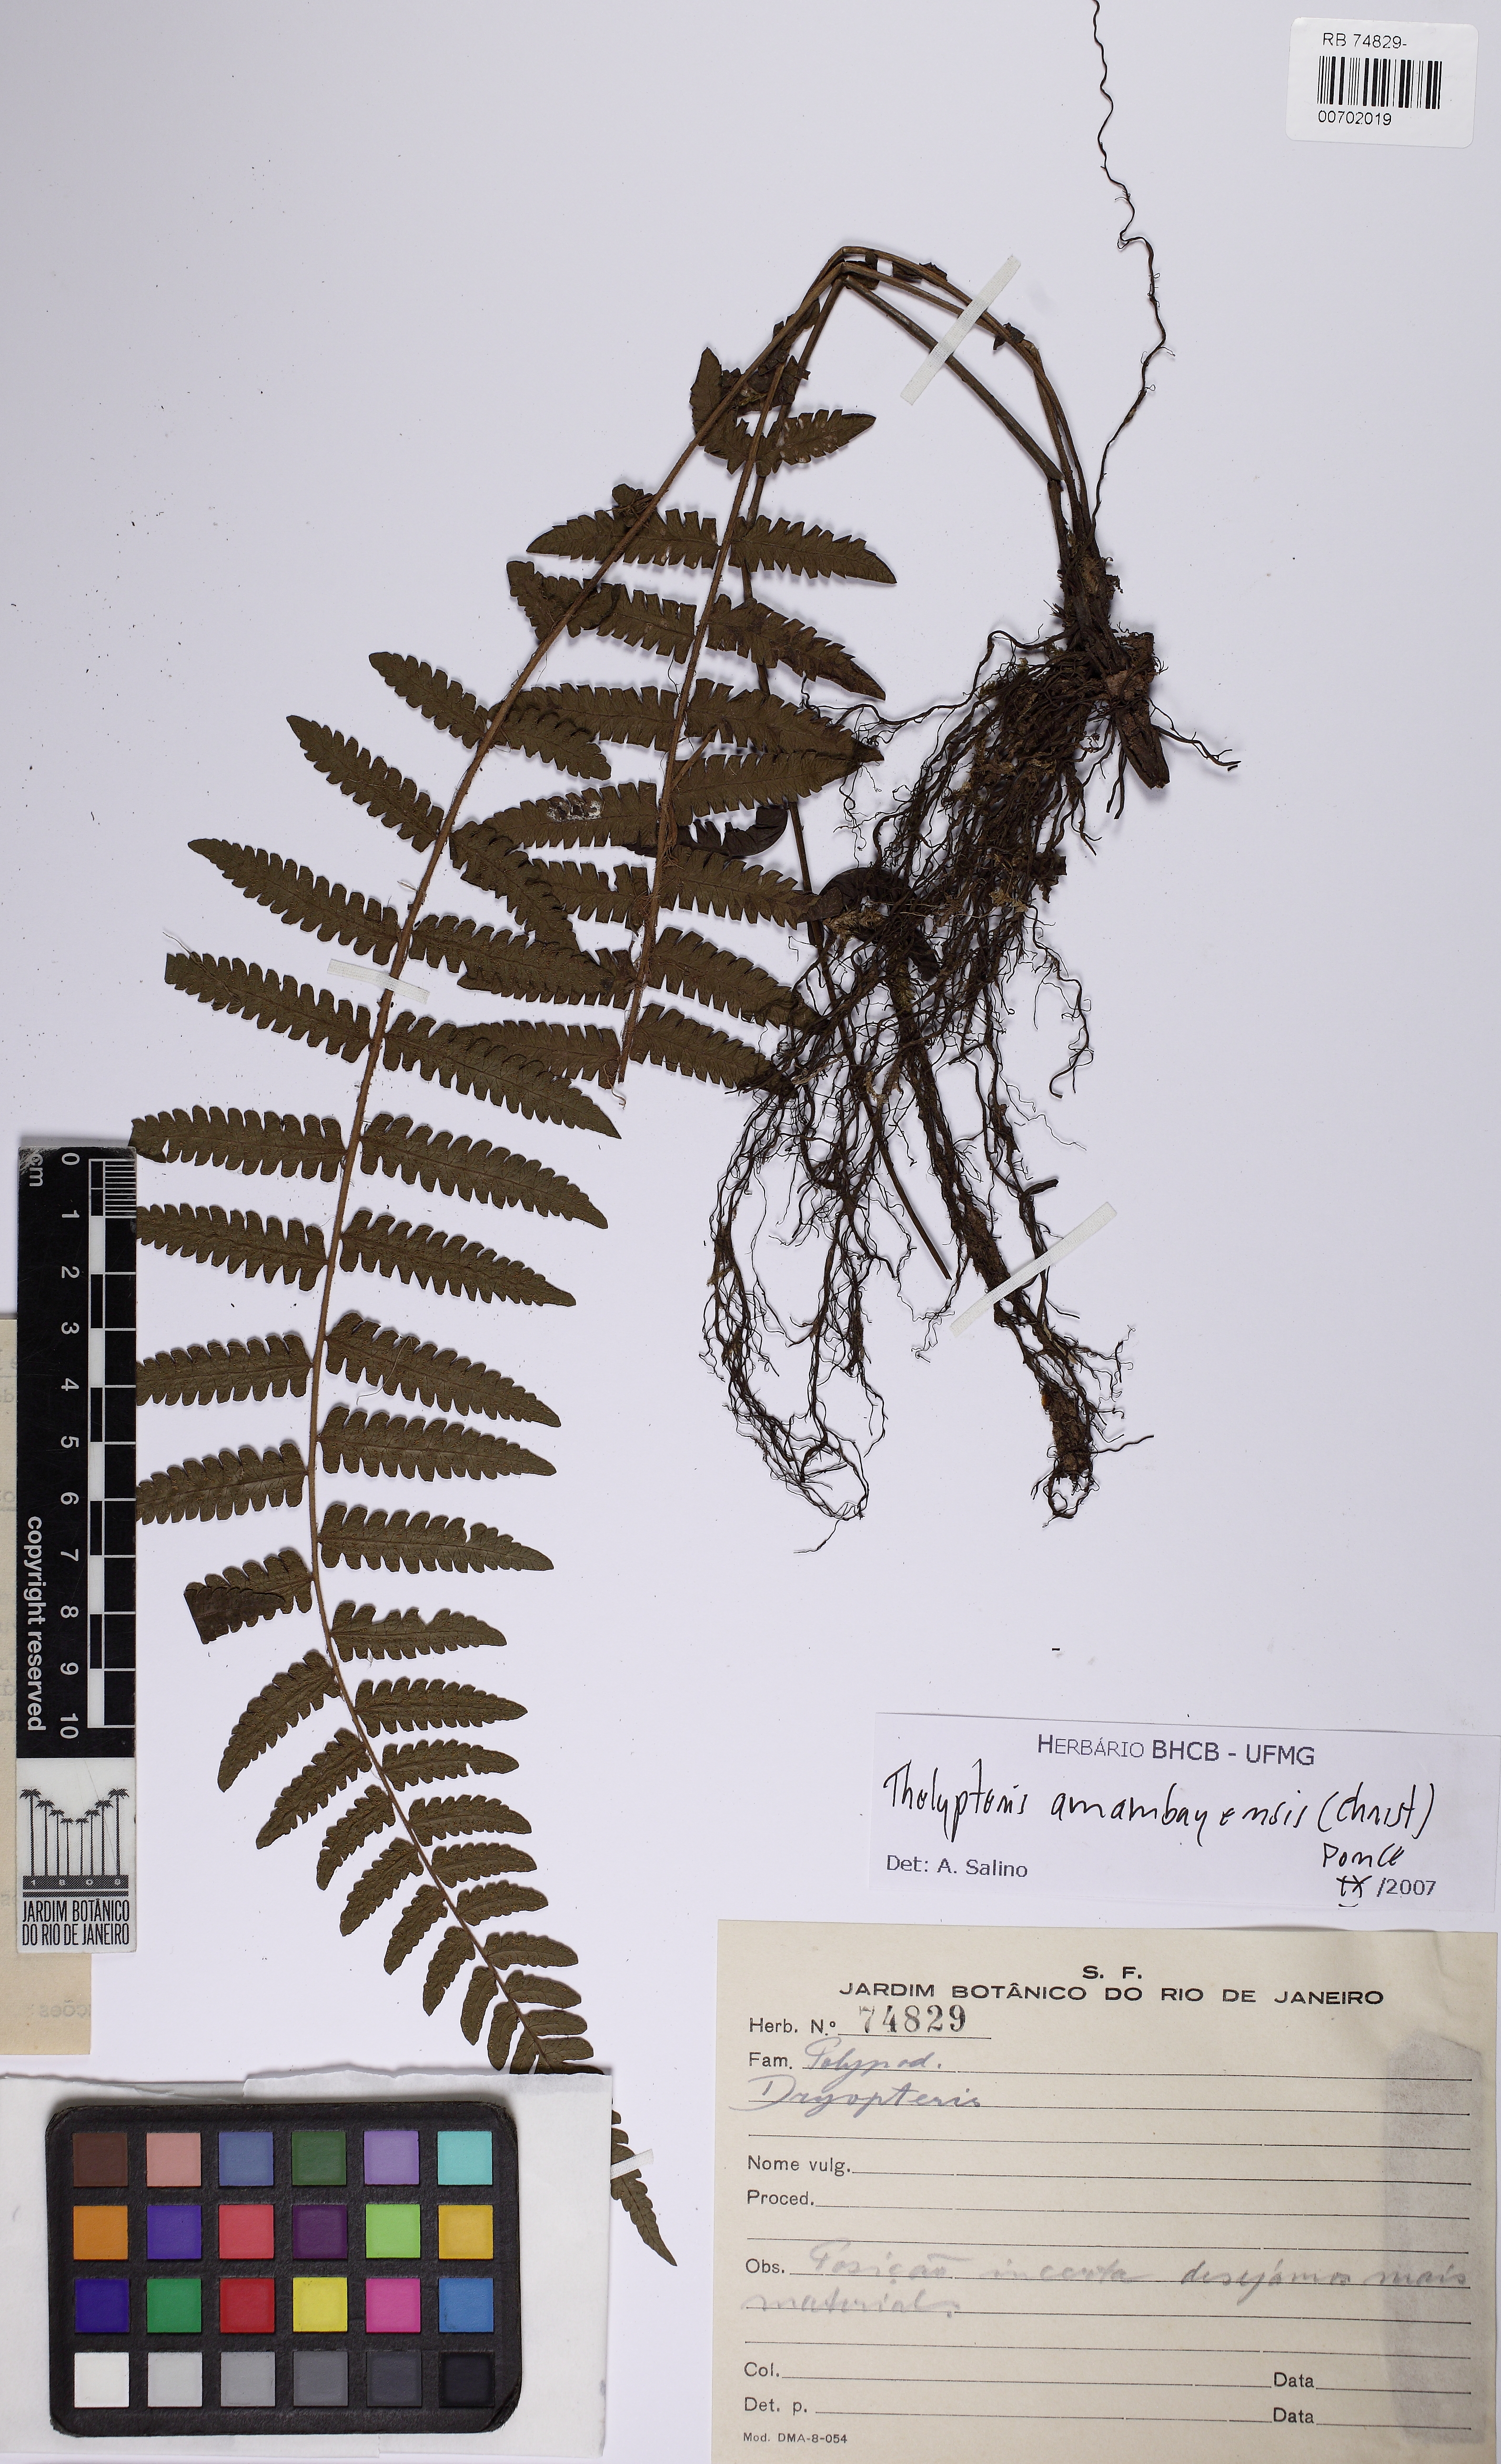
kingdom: Plantae
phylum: Tracheophyta
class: Polypodiopsida
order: Polypodiales
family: Thelypteridaceae
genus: Amauropelta
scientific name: Amauropelta amambayensis
